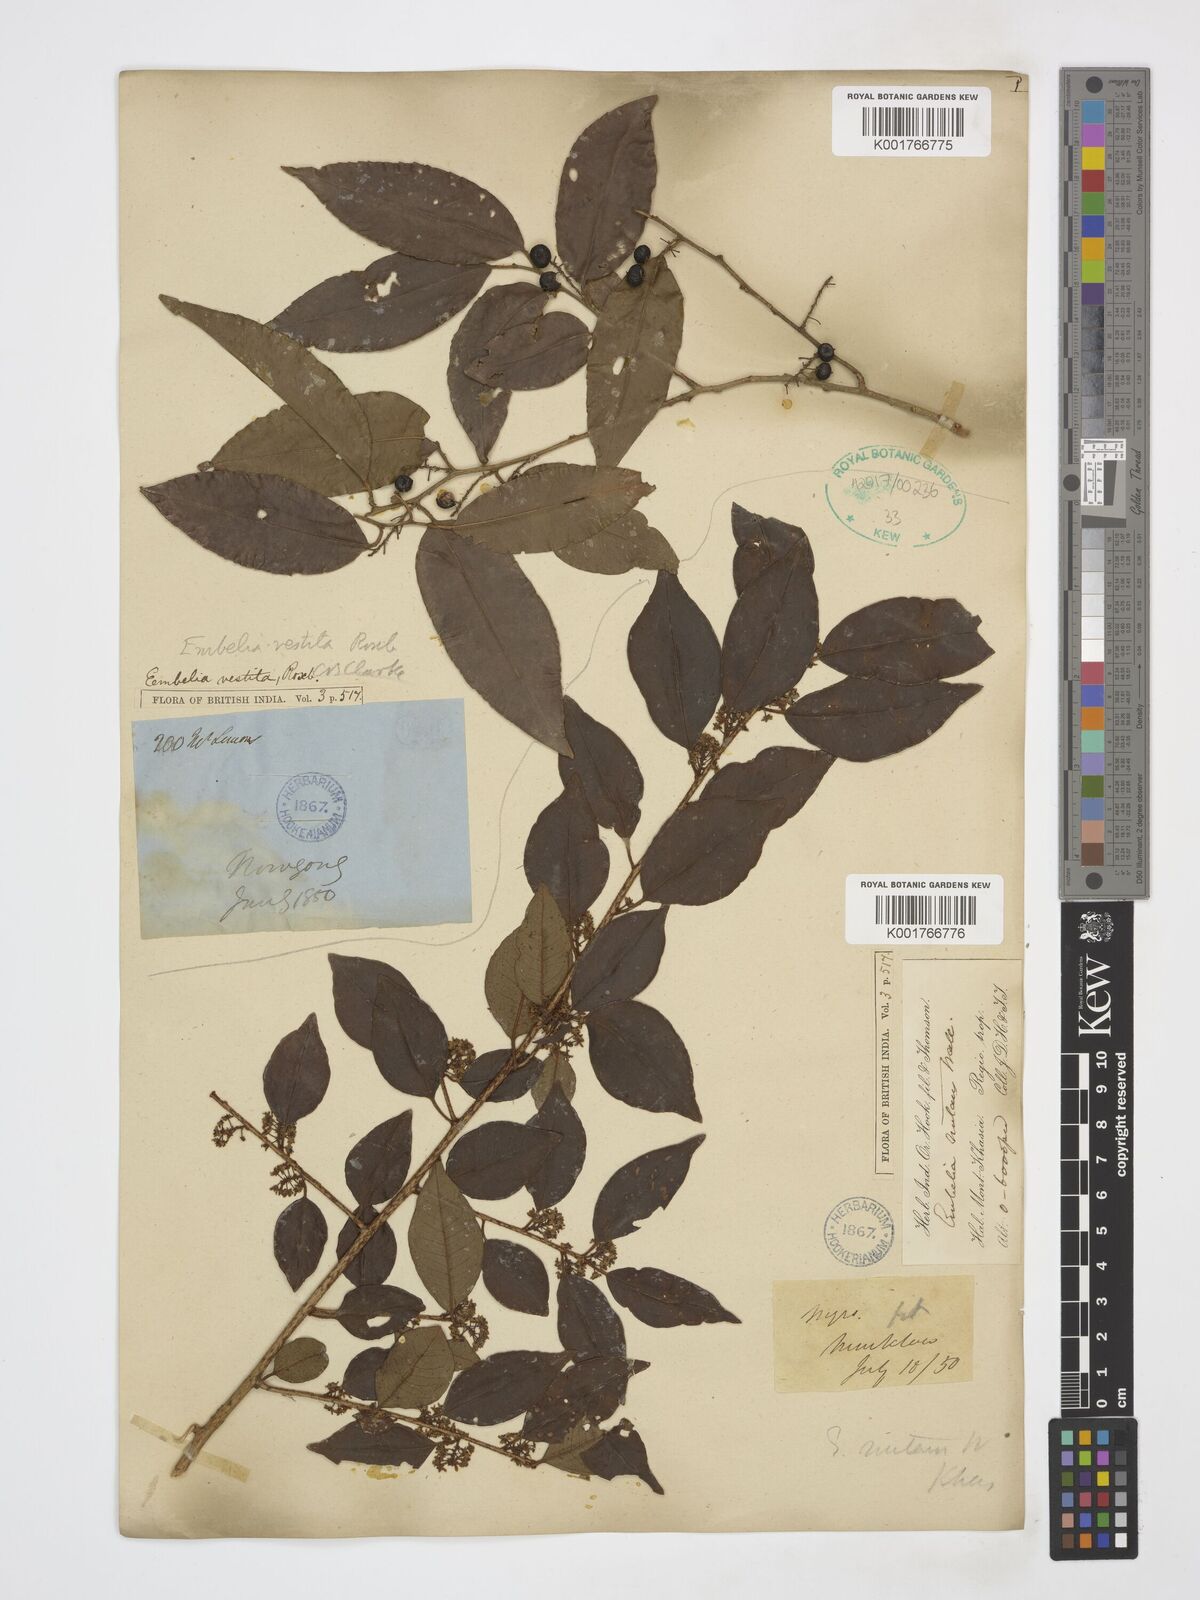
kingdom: Plantae
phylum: Tracheophyta
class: Magnoliopsida
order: Ericales
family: Primulaceae
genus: Embelia
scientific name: Embelia nutans
